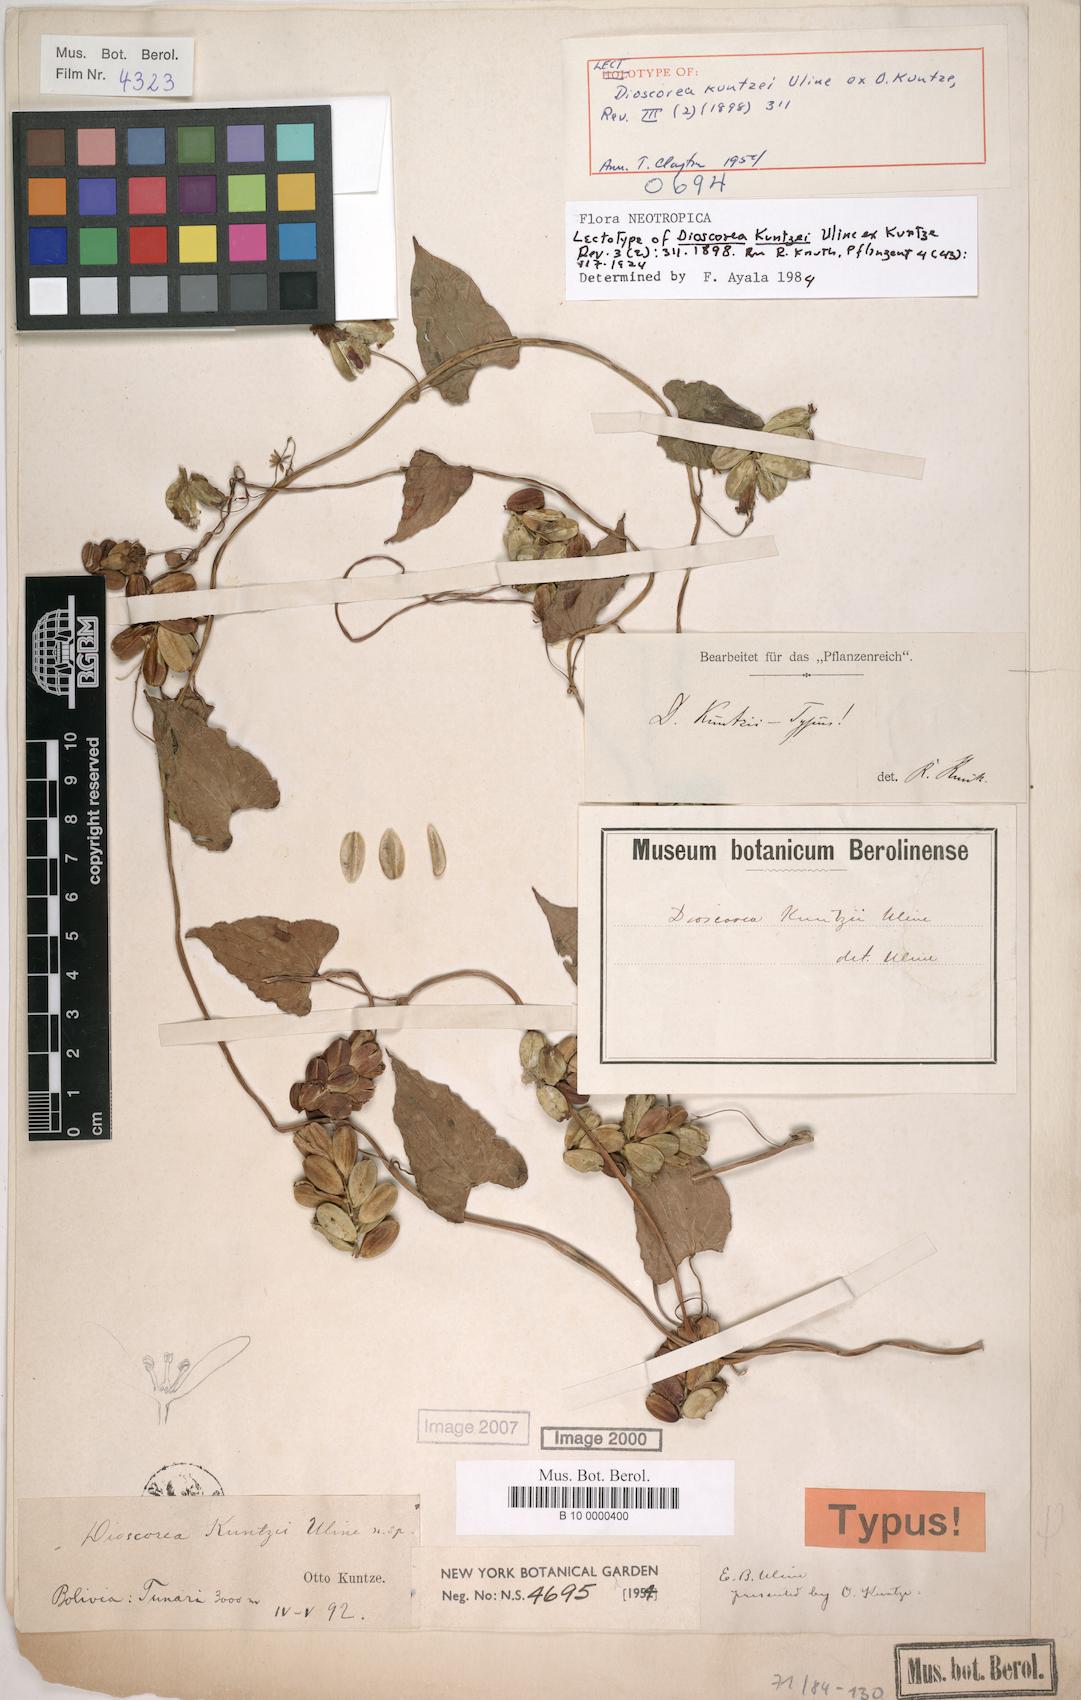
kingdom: Plantae
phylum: Tracheophyta
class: Liliopsida
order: Dioscoreales
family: Dioscoreaceae
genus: Dioscorea
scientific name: Dioscorea kuntzei
